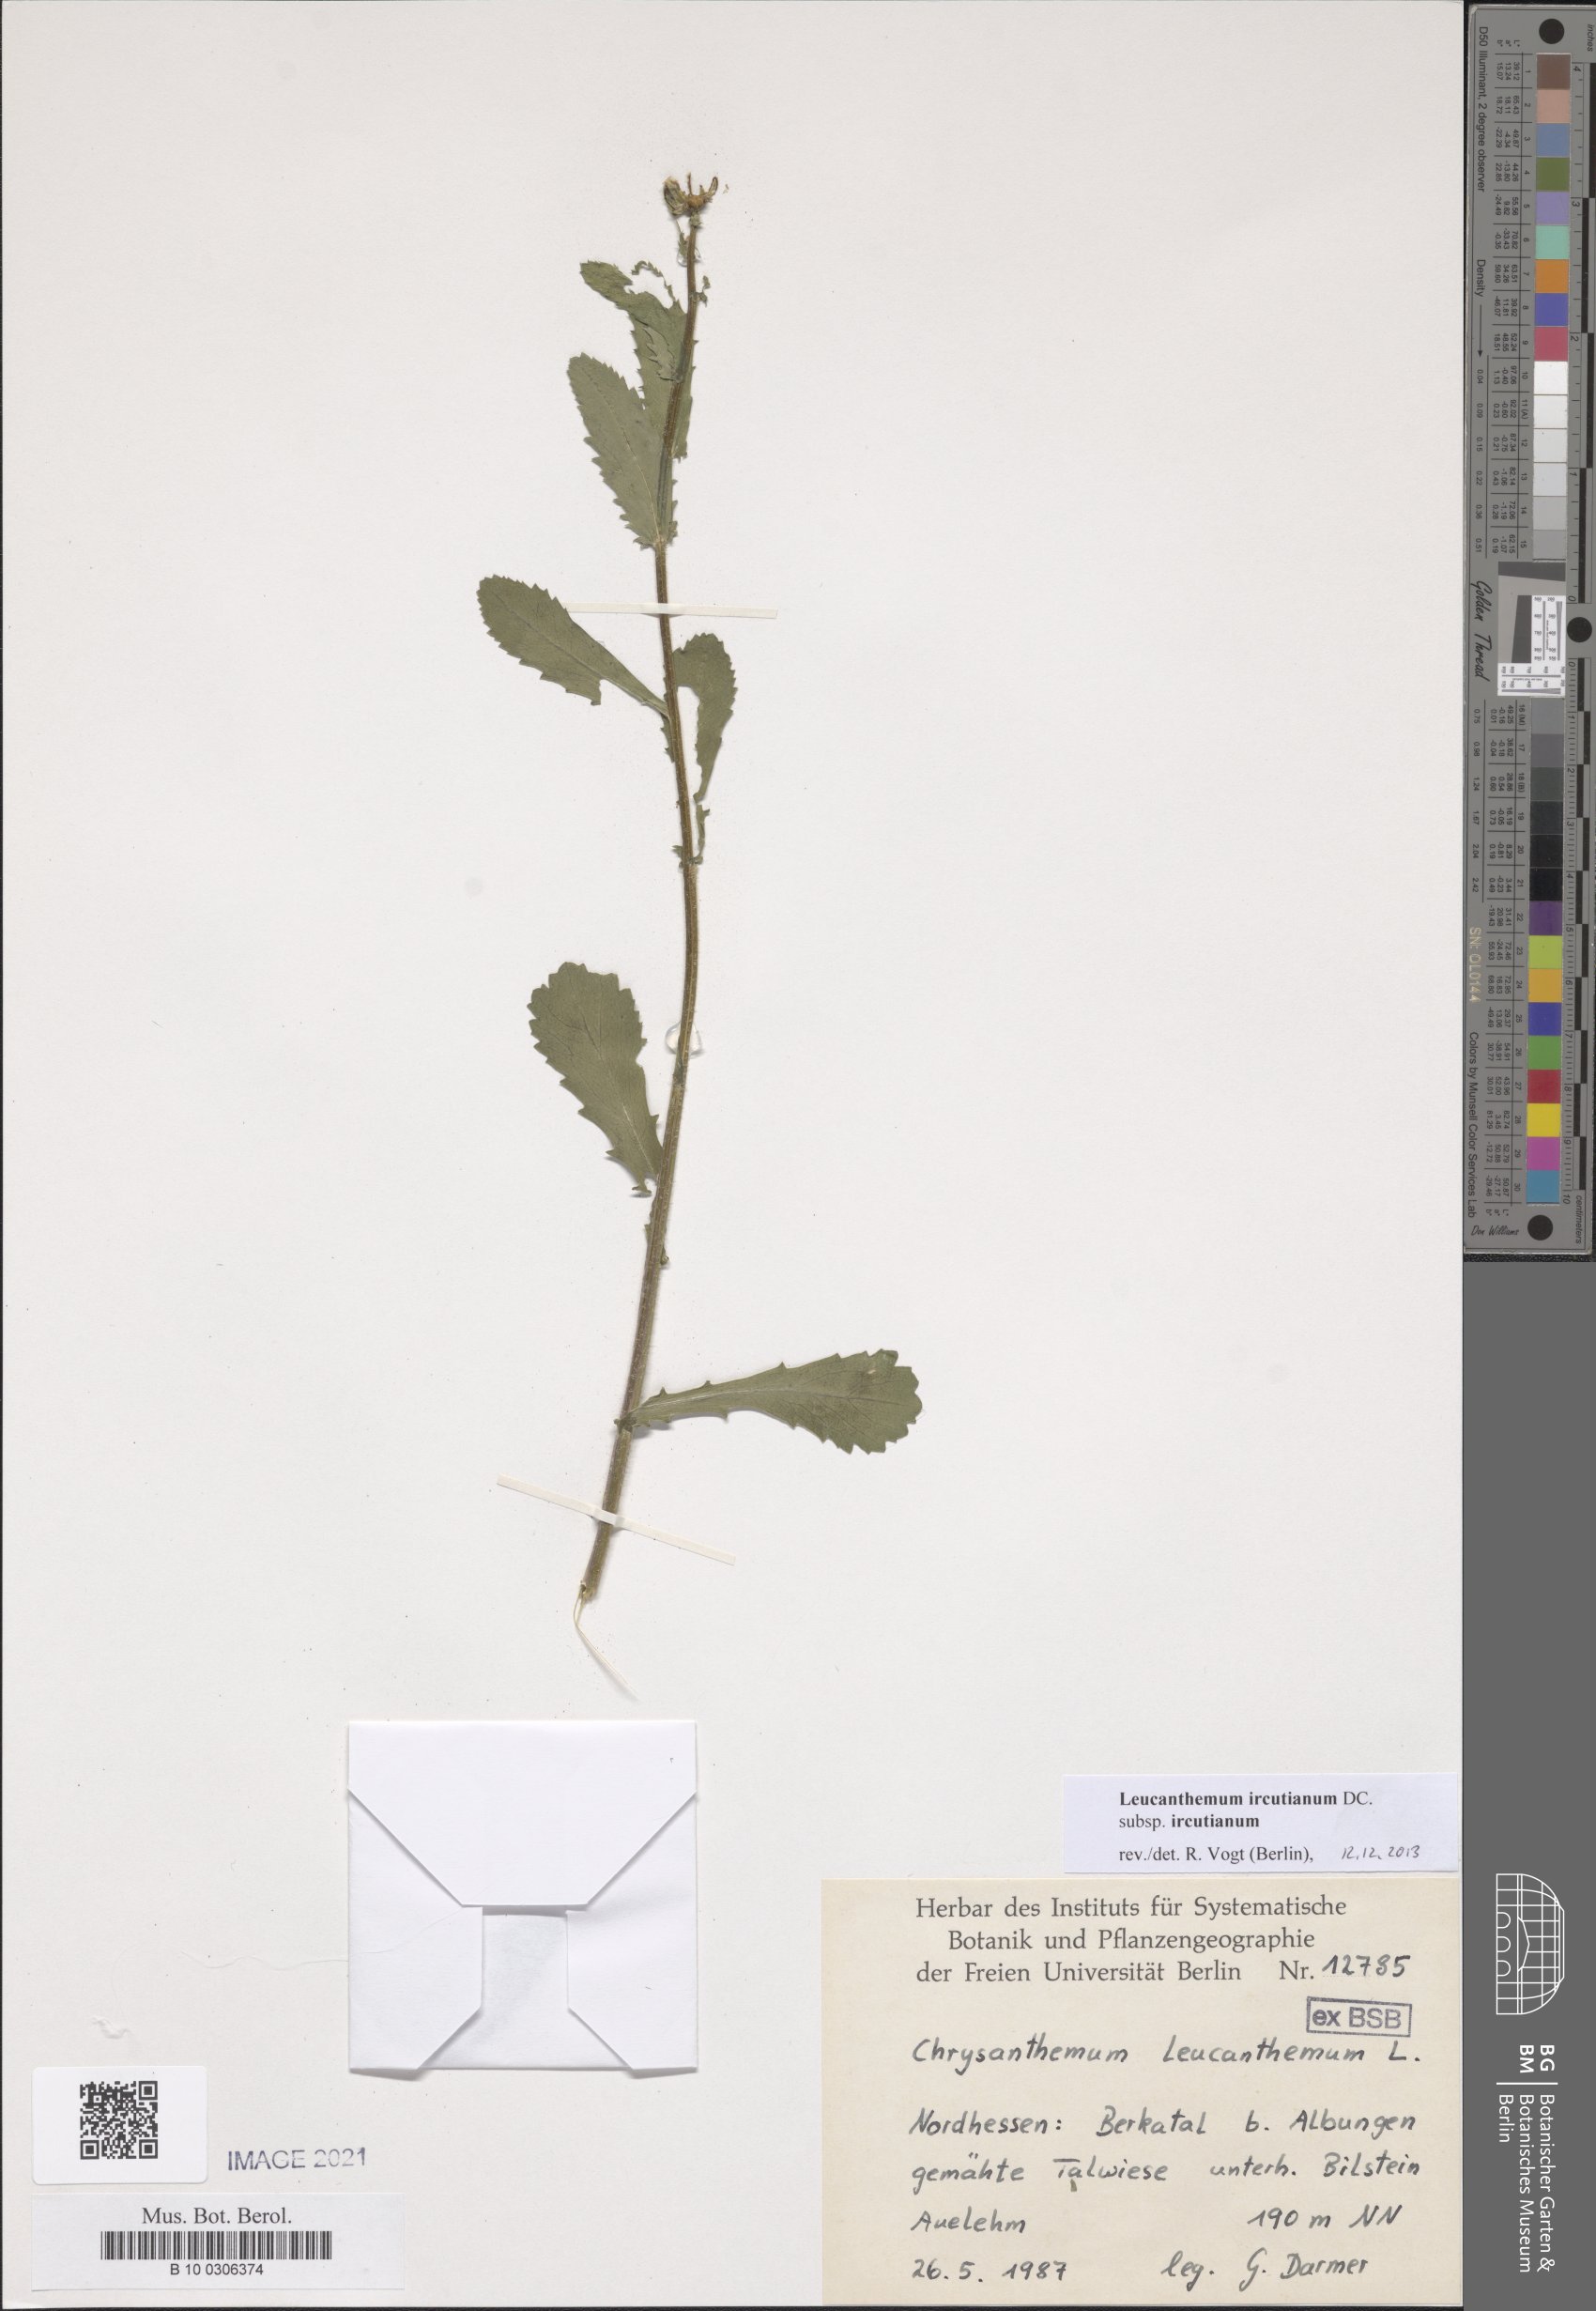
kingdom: Plantae
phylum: Tracheophyta
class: Magnoliopsida
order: Asterales
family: Asteraceae
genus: Leucanthemum
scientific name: Leucanthemum ircutianum
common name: Daisy
